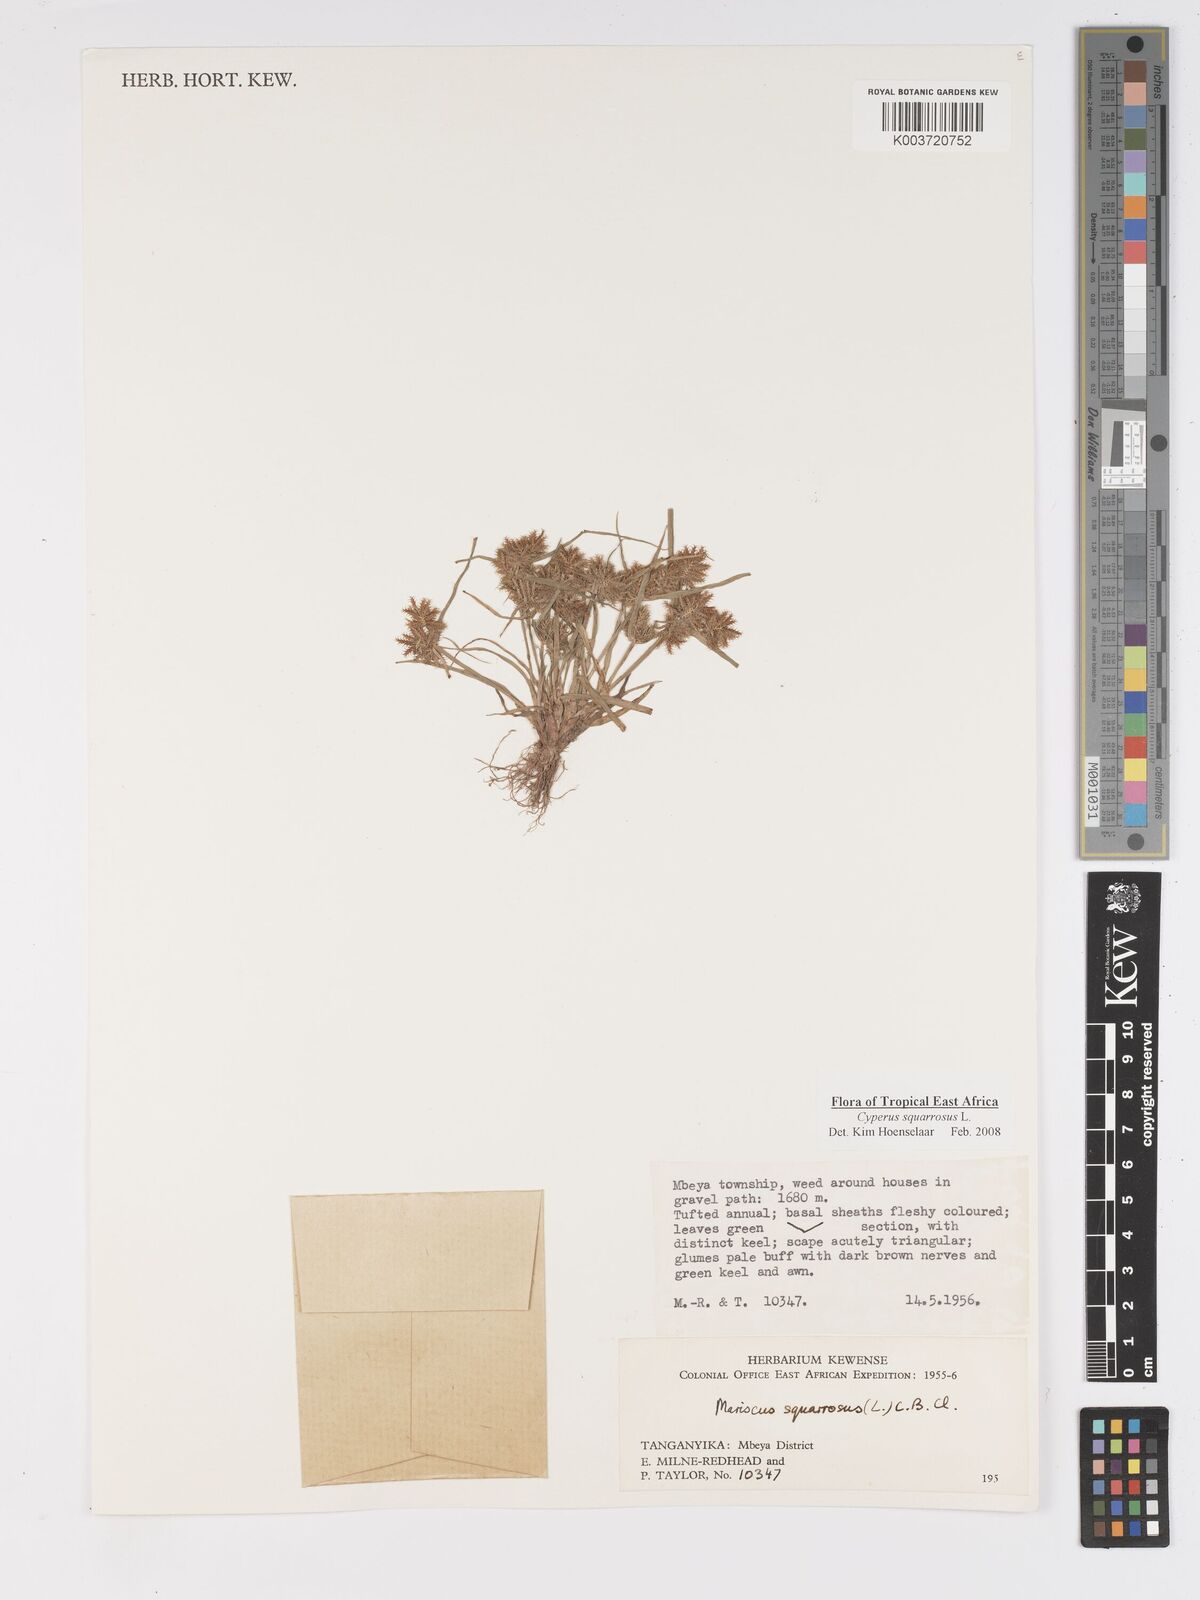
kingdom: Plantae
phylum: Tracheophyta
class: Liliopsida
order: Poales
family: Cyperaceae
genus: Cyperus
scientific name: Cyperus squarrosus
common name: Awned cyperus
